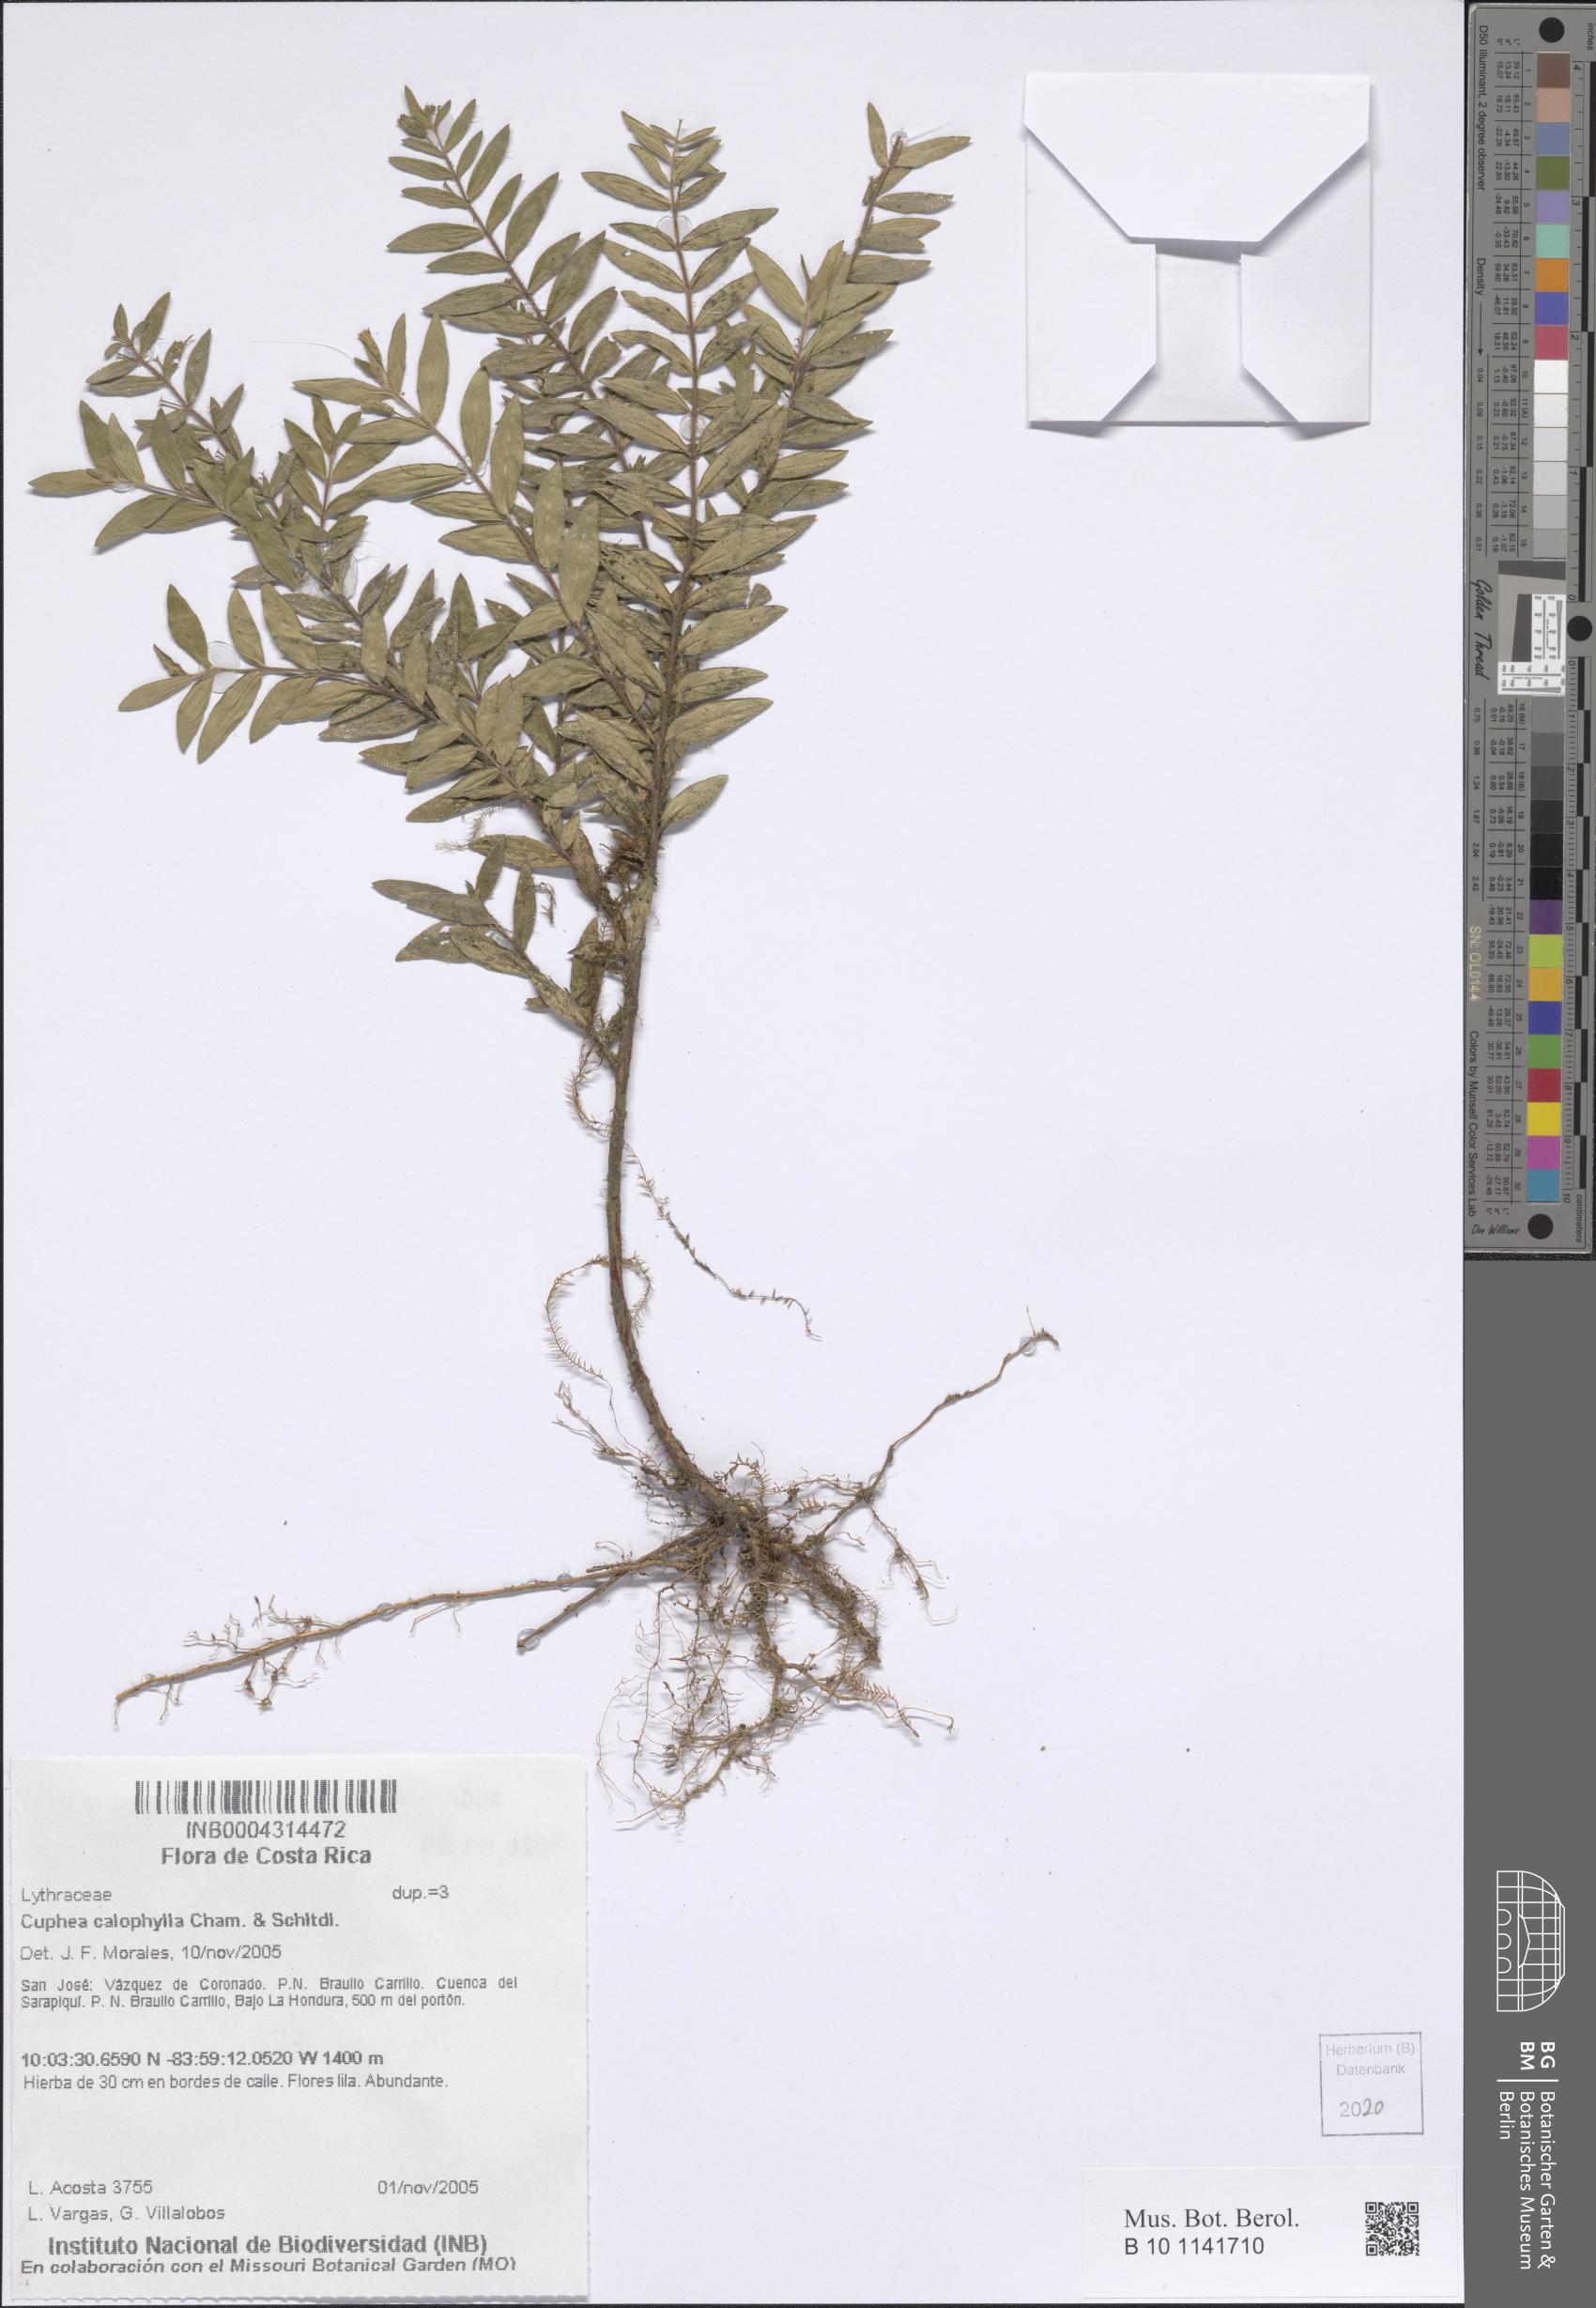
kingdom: Plantae
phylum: Tracheophyta
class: Magnoliopsida
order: Myrtales
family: Lythraceae
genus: Cuphea
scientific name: Cuphea calophylla
